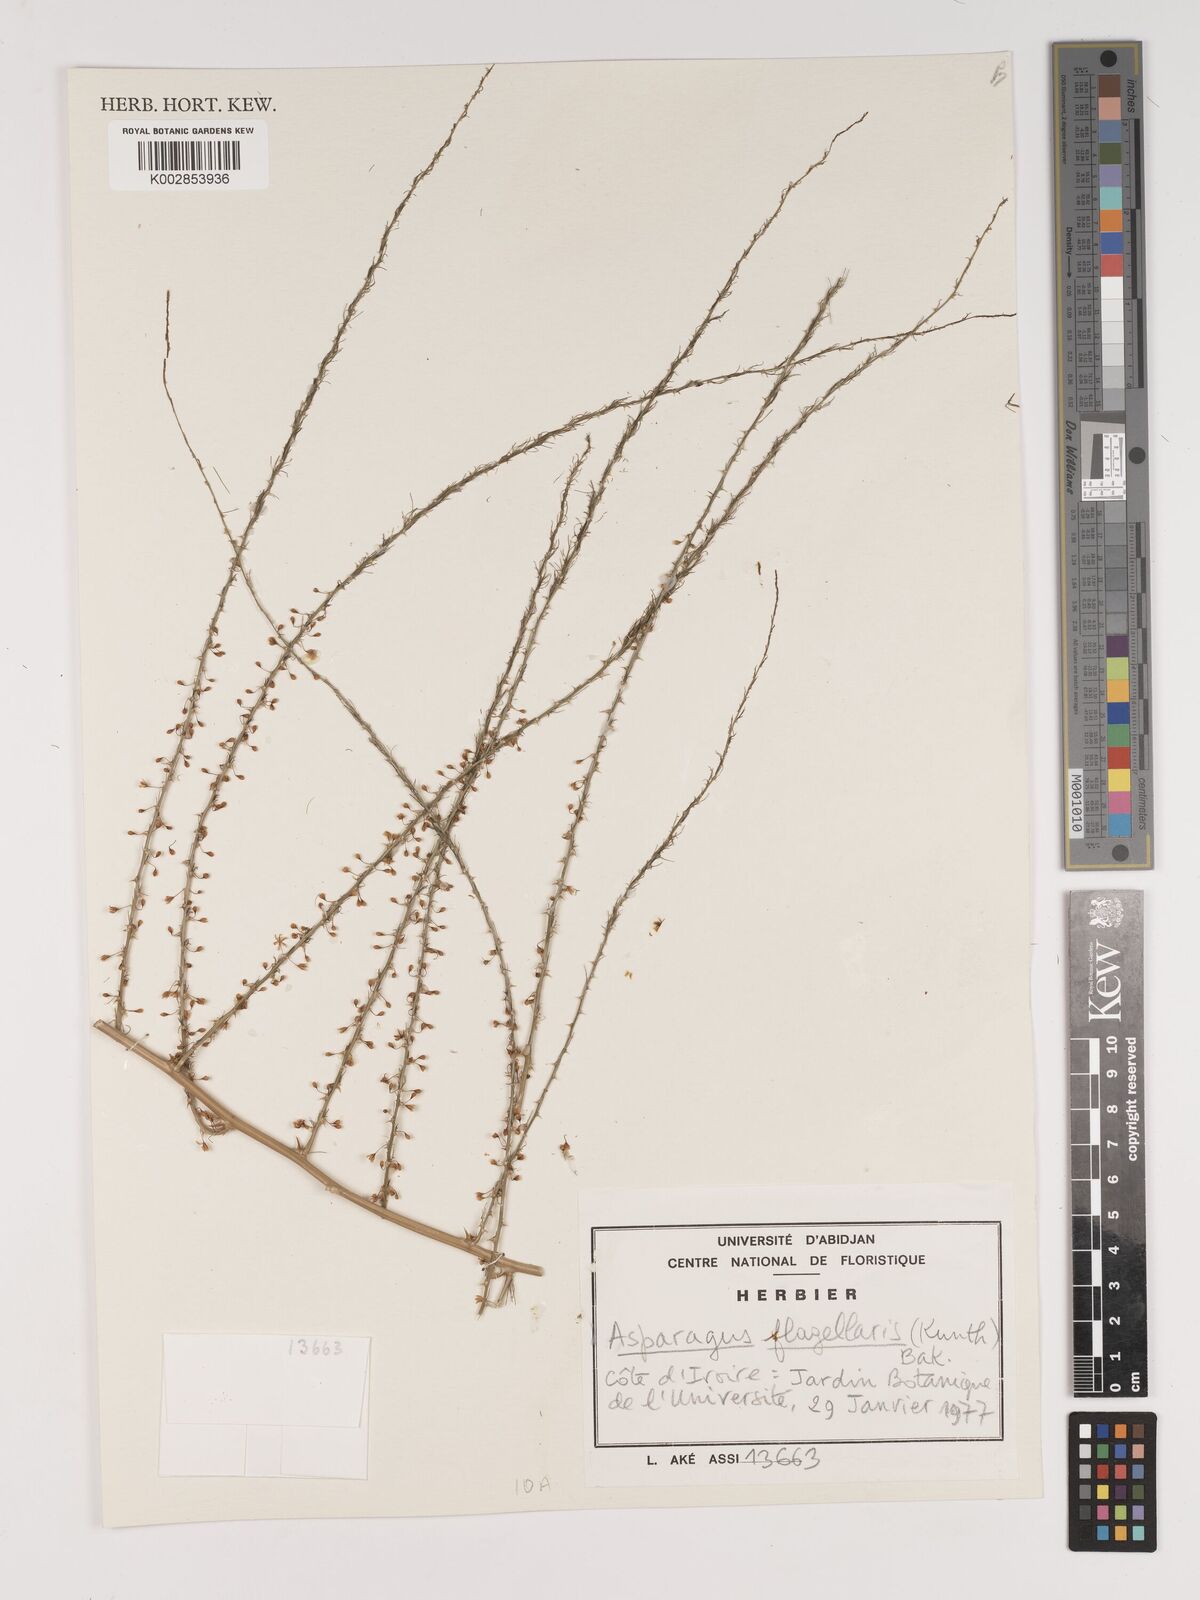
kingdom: Plantae
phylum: Tracheophyta
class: Liliopsida
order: Asparagales
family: Asparagaceae
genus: Asparagus
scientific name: Asparagus flagellaris
